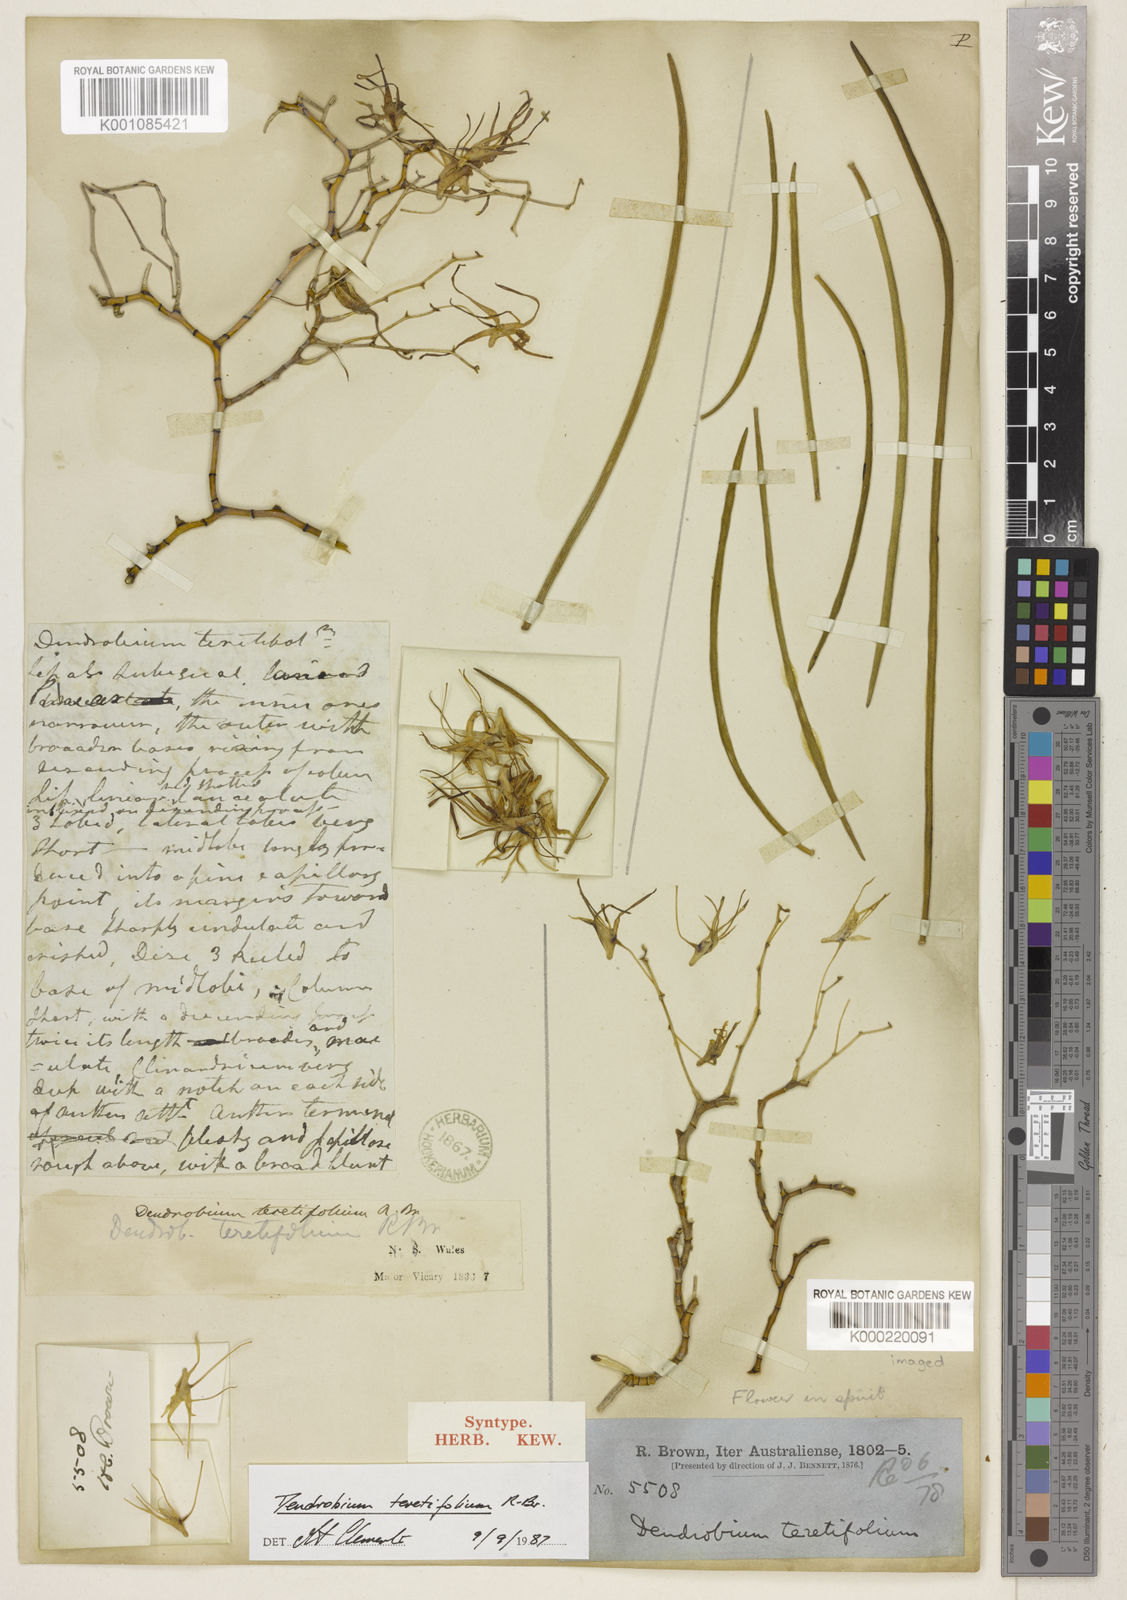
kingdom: Plantae
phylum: Tracheophyta
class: Liliopsida
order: Asparagales
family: Orchidaceae
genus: Dendrobium
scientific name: Dendrobium teretifolium
